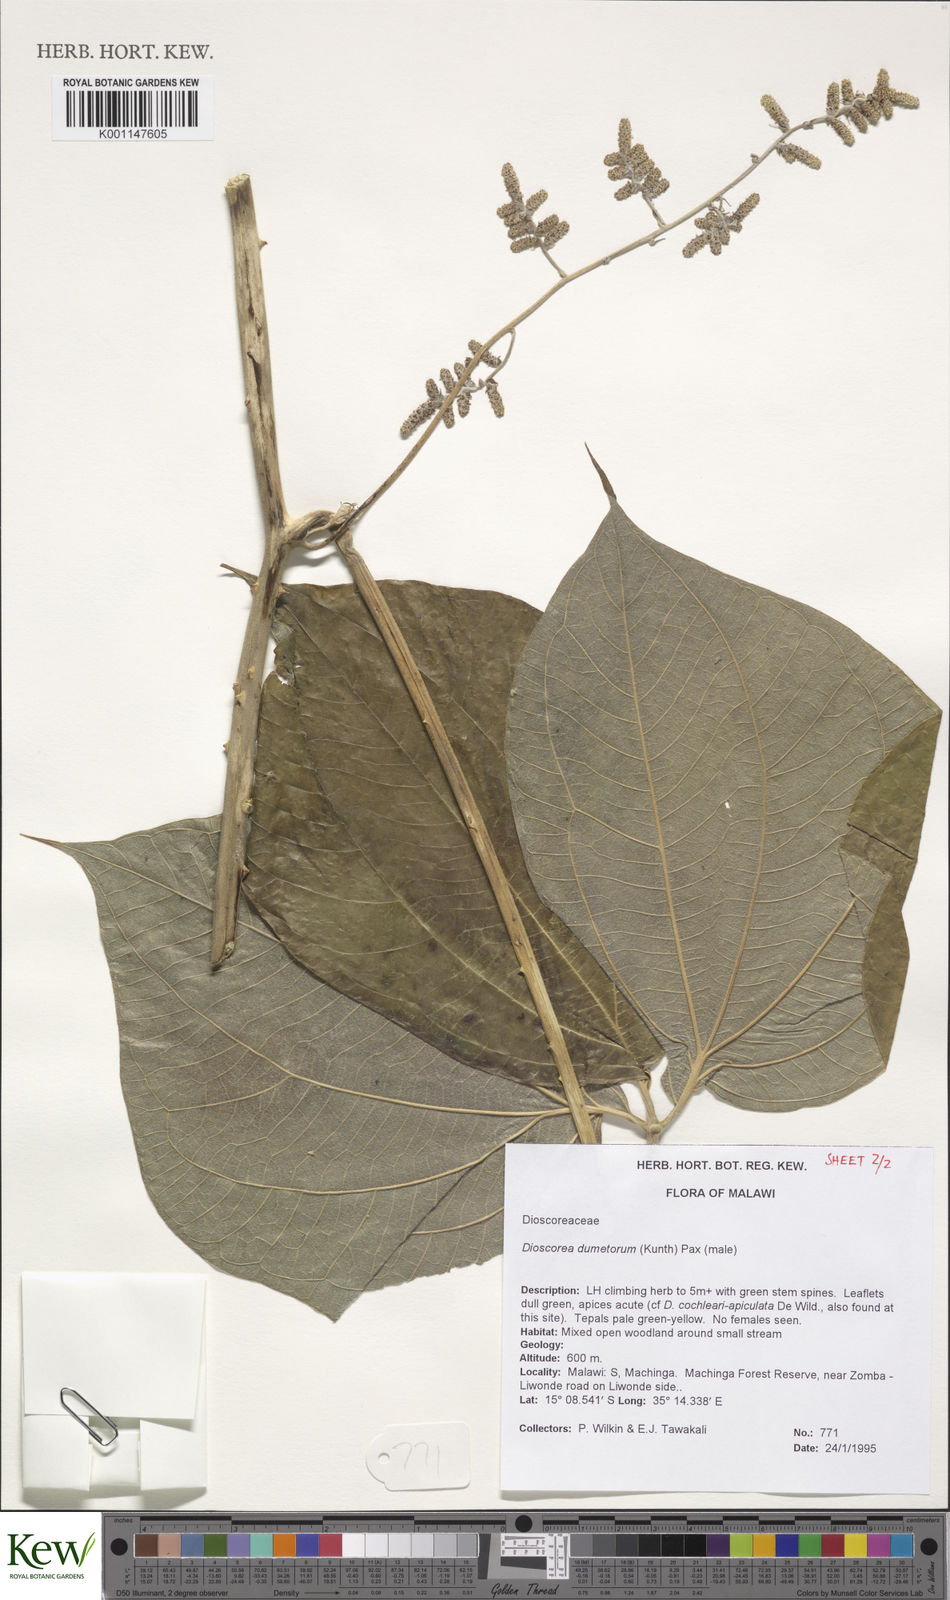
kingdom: Plantae
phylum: Tracheophyta
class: Liliopsida
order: Dioscoreales
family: Dioscoreaceae
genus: Dioscorea
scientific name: Dioscorea dumetorum
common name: African bitter yam
